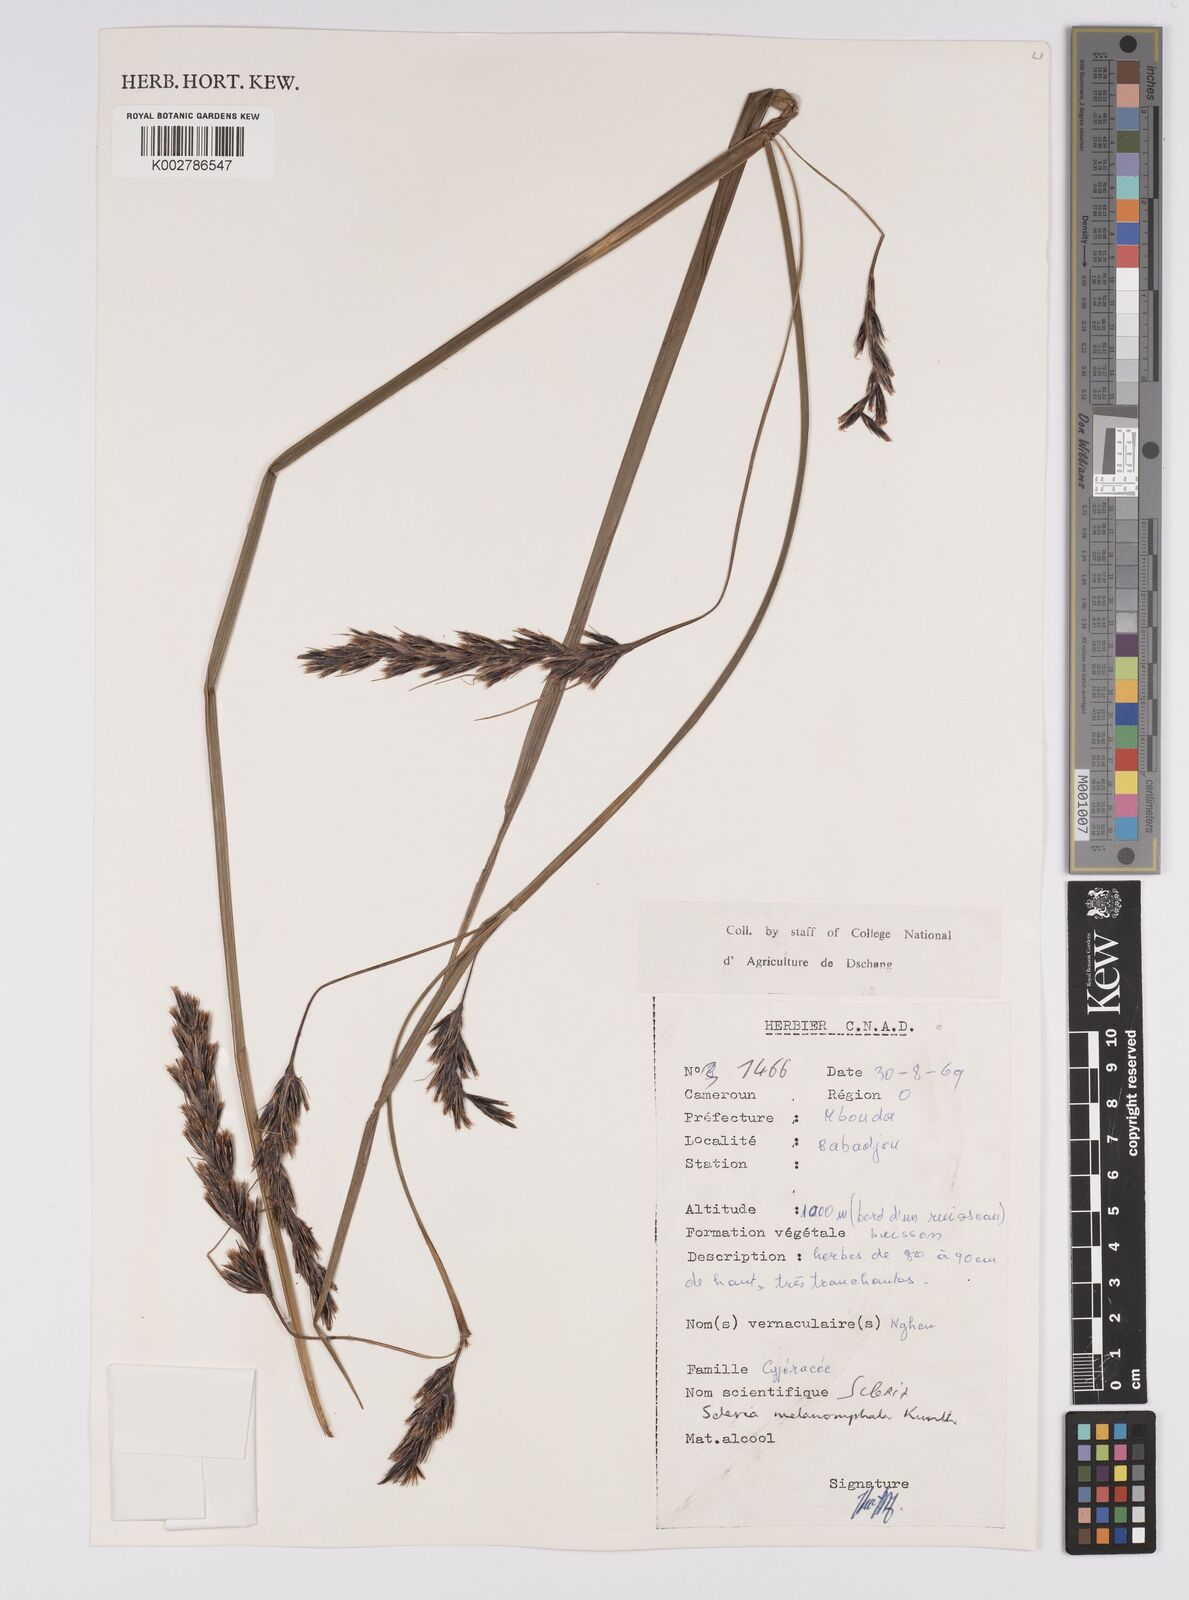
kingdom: Plantae
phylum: Tracheophyta
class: Liliopsida
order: Poales
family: Cyperaceae
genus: Scleria
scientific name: Scleria melanomphala
